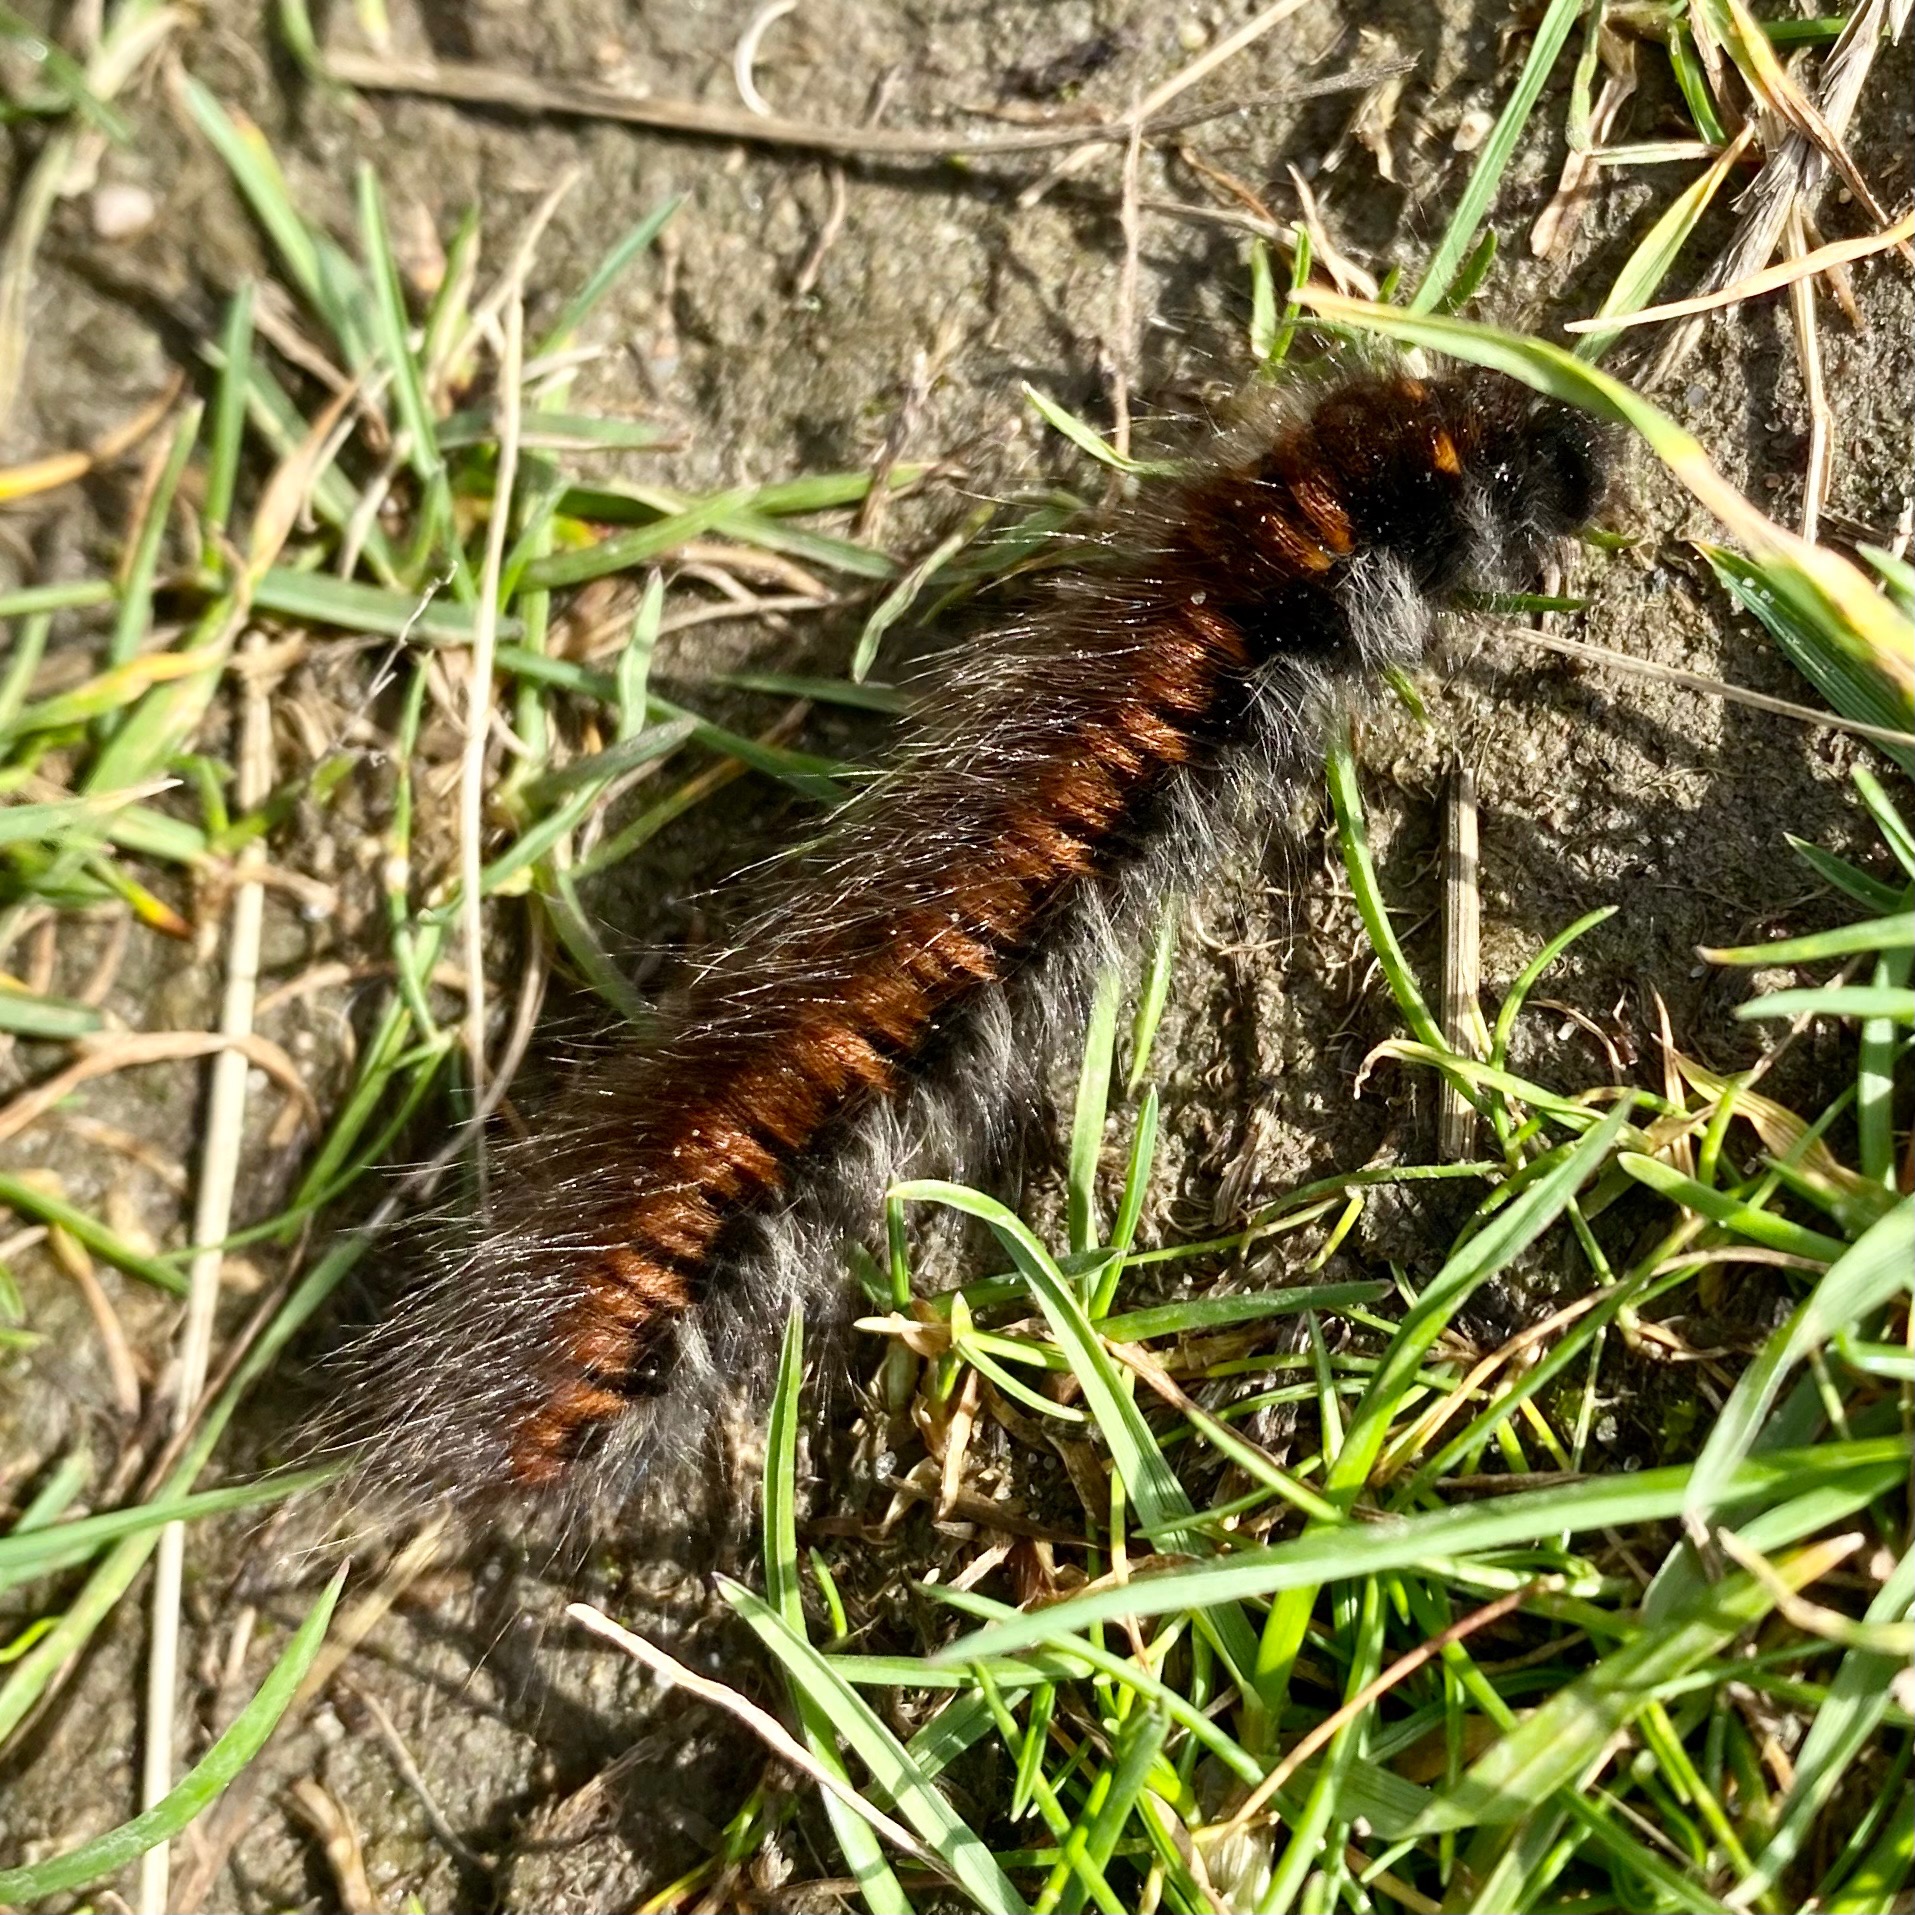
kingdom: Animalia
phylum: Arthropoda
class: Insecta
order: Lepidoptera
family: Lasiocampidae
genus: Macrothylacia
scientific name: Macrothylacia rubi
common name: Brombærspinder
